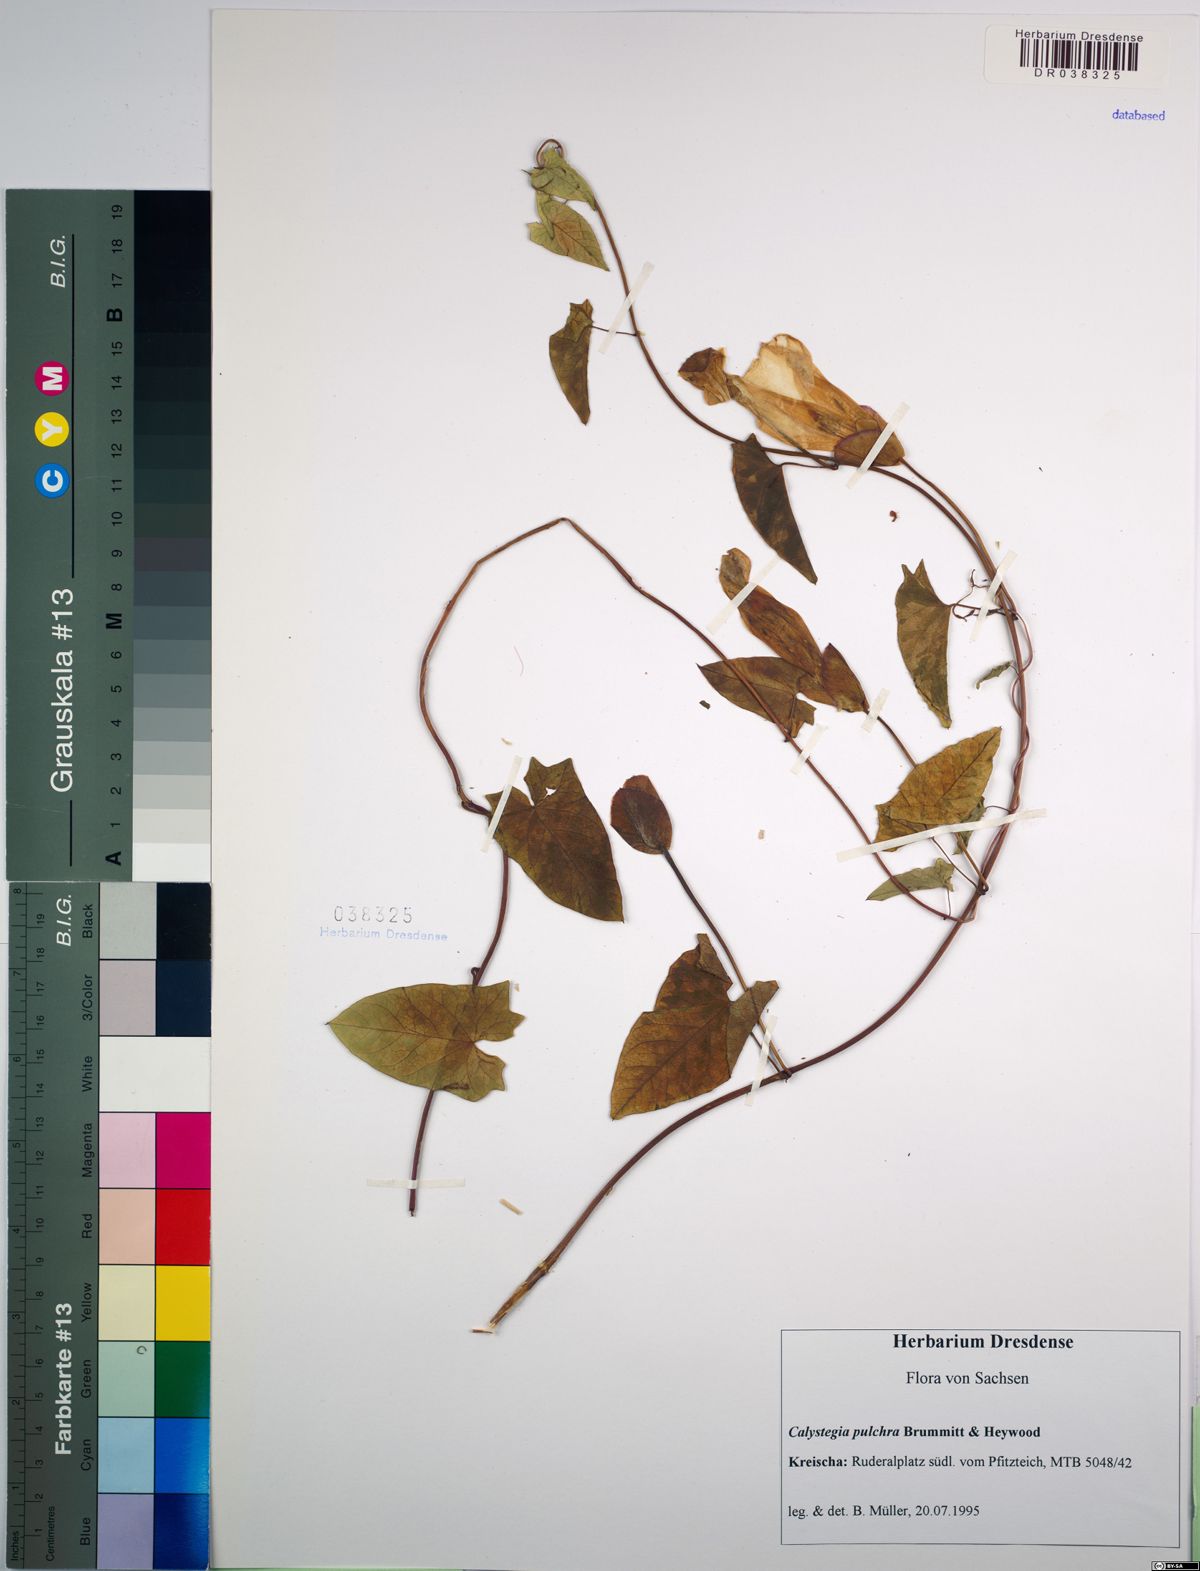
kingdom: Plantae
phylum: Tracheophyta
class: Magnoliopsida
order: Solanales
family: Convolvulaceae
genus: Calystegia
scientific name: Calystegia pulchra
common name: Hairy bindweed
